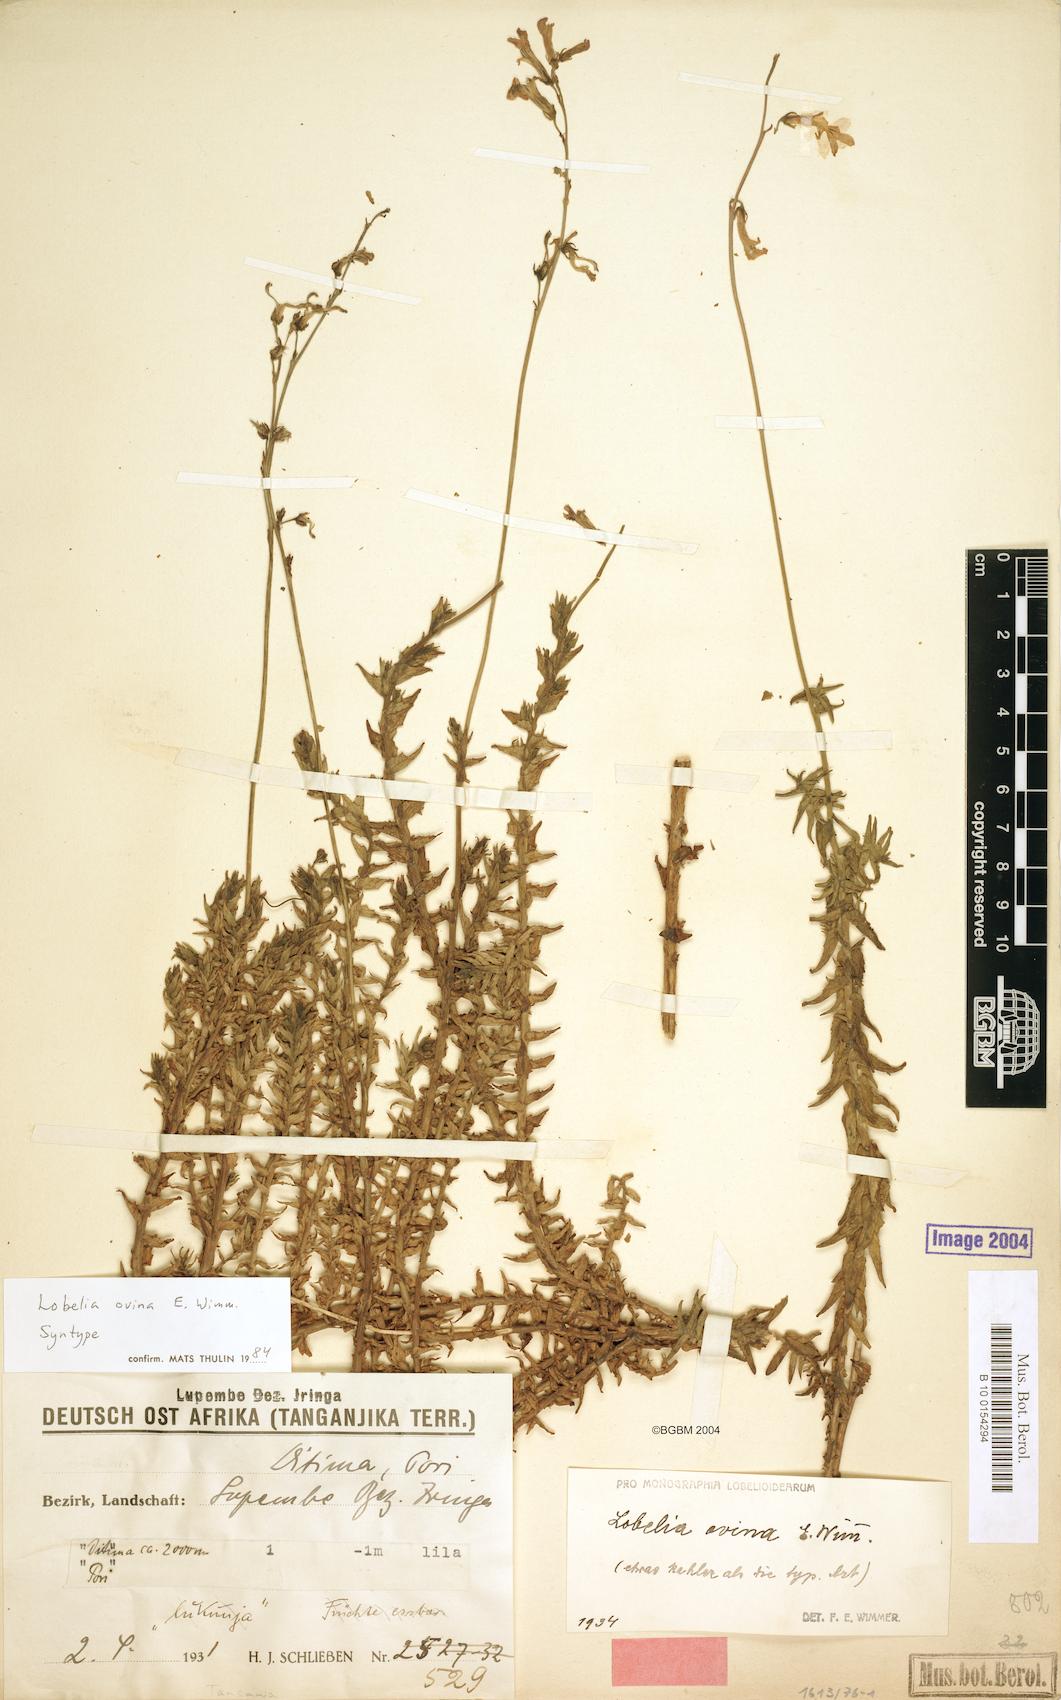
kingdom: Plantae
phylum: Tracheophyta
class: Magnoliopsida
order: Asterales
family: Campanulaceae
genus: Lobelia
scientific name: Lobelia ovina
